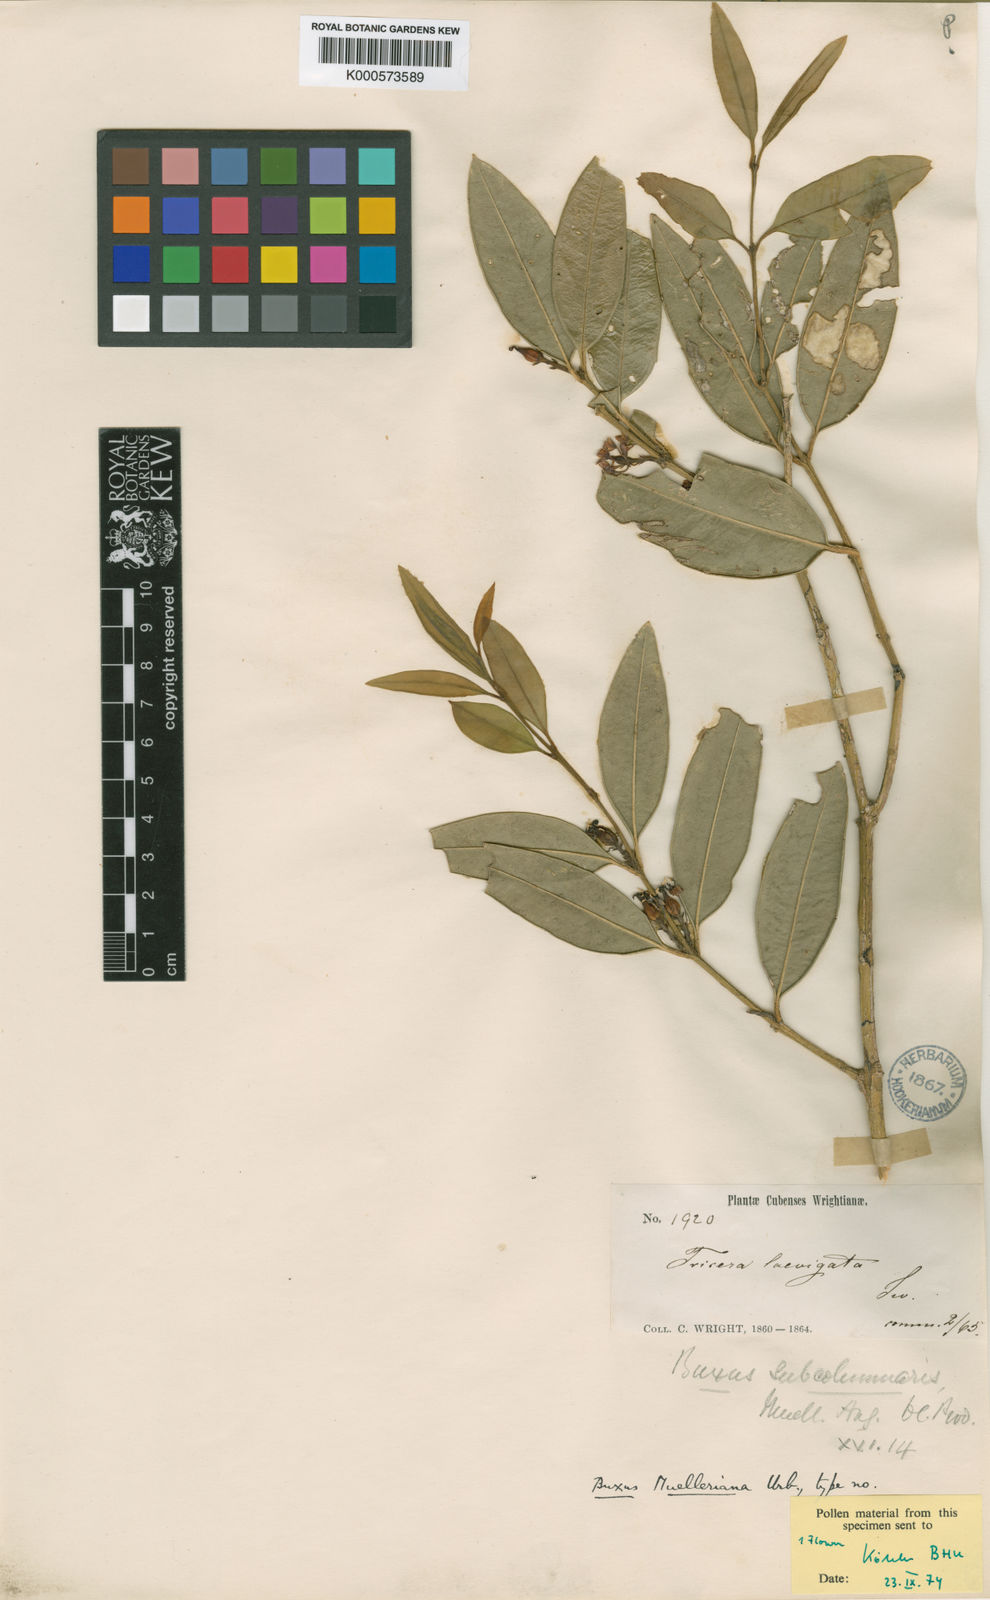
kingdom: Plantae
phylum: Tracheophyta
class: Magnoliopsida
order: Buxales
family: Buxaceae
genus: Buxus
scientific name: Buxus muelleriana
